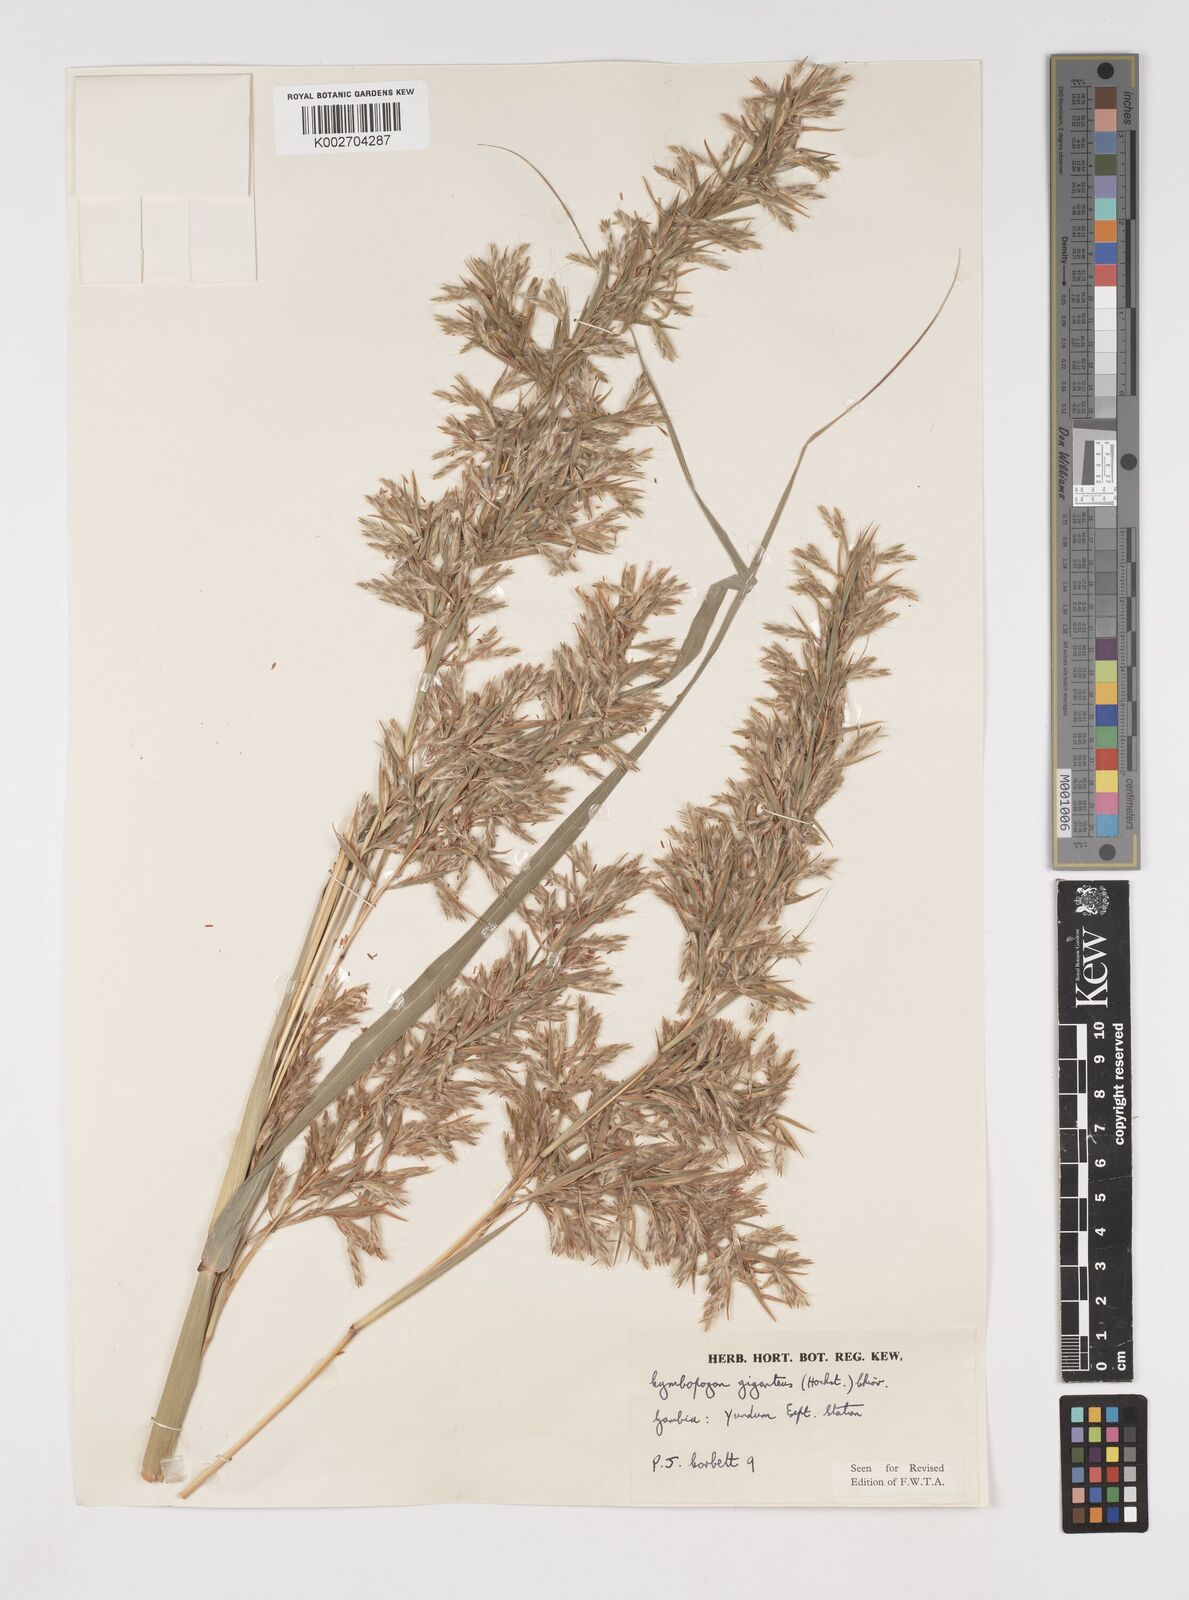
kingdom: Plantae
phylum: Tracheophyta
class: Liliopsida
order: Poales
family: Poaceae
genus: Cymbopogon
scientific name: Cymbopogon giganteus
